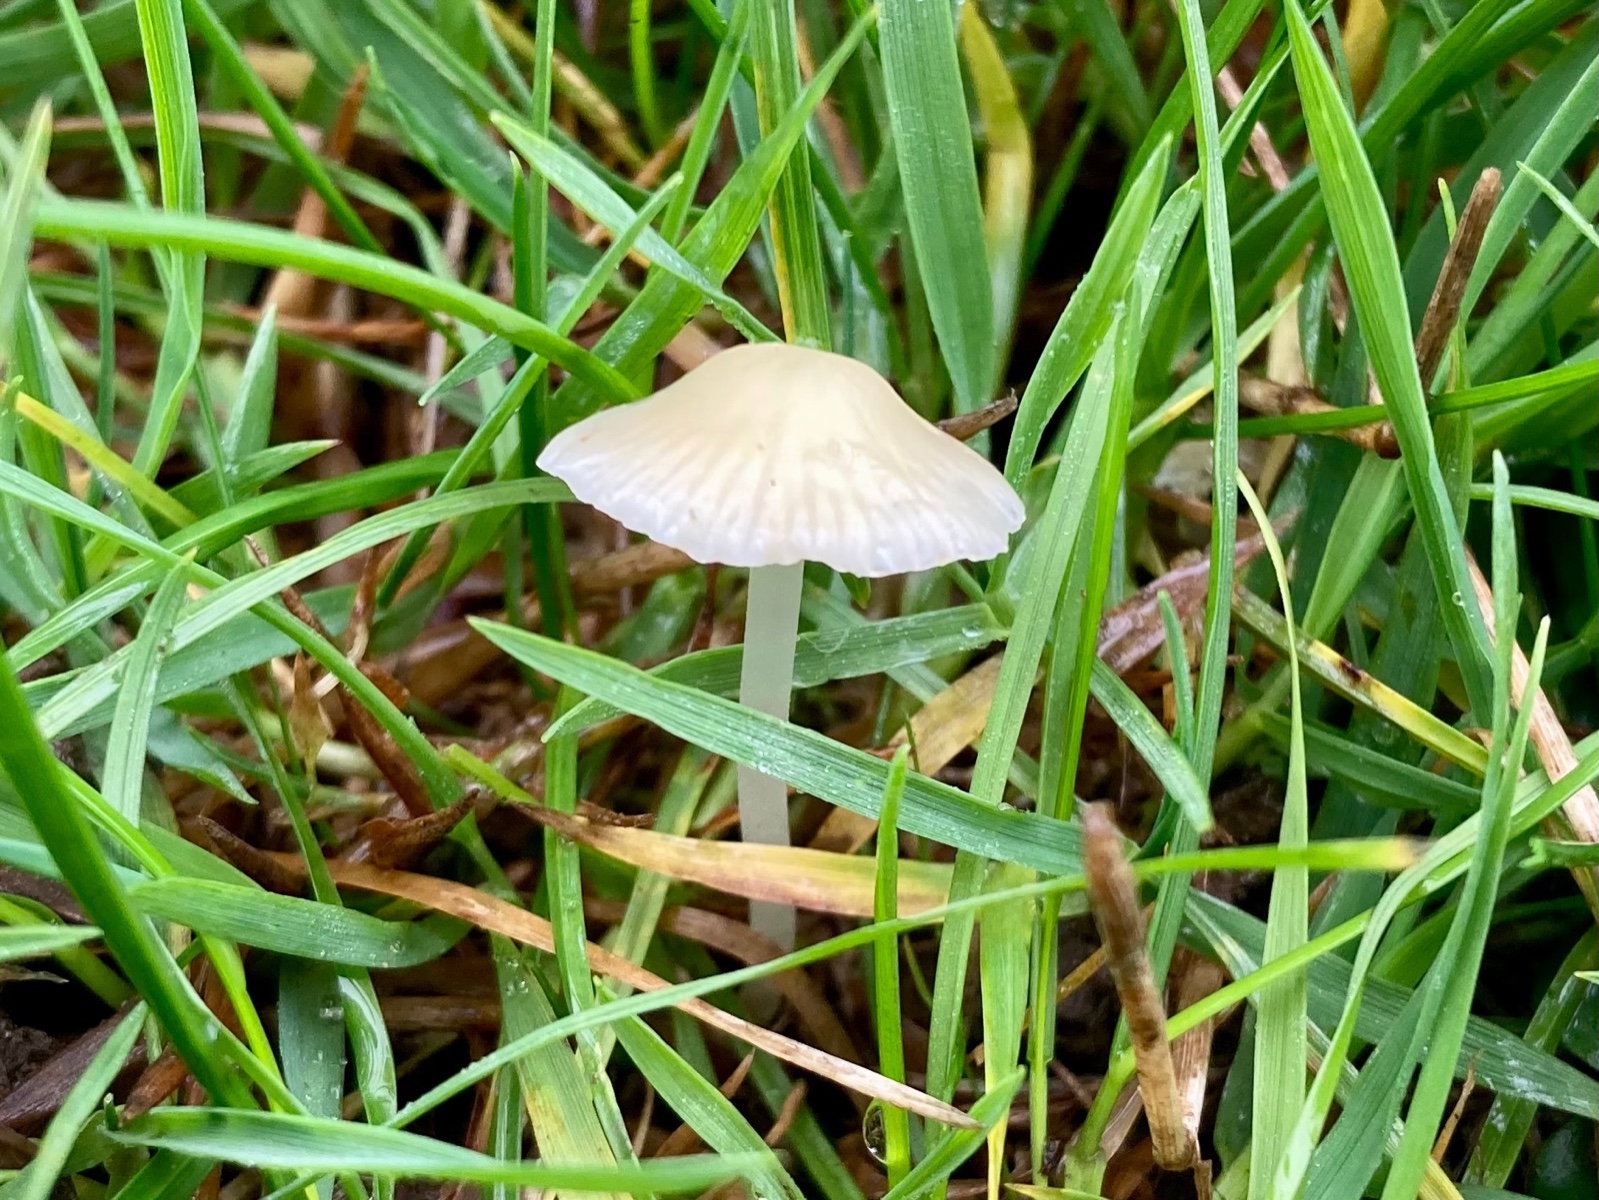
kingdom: Fungi
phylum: Basidiomycota
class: Agaricomycetes
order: Agaricales
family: Mycenaceae
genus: Atheniella
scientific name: Atheniella flavoalba
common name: gulhvid huesvamp
